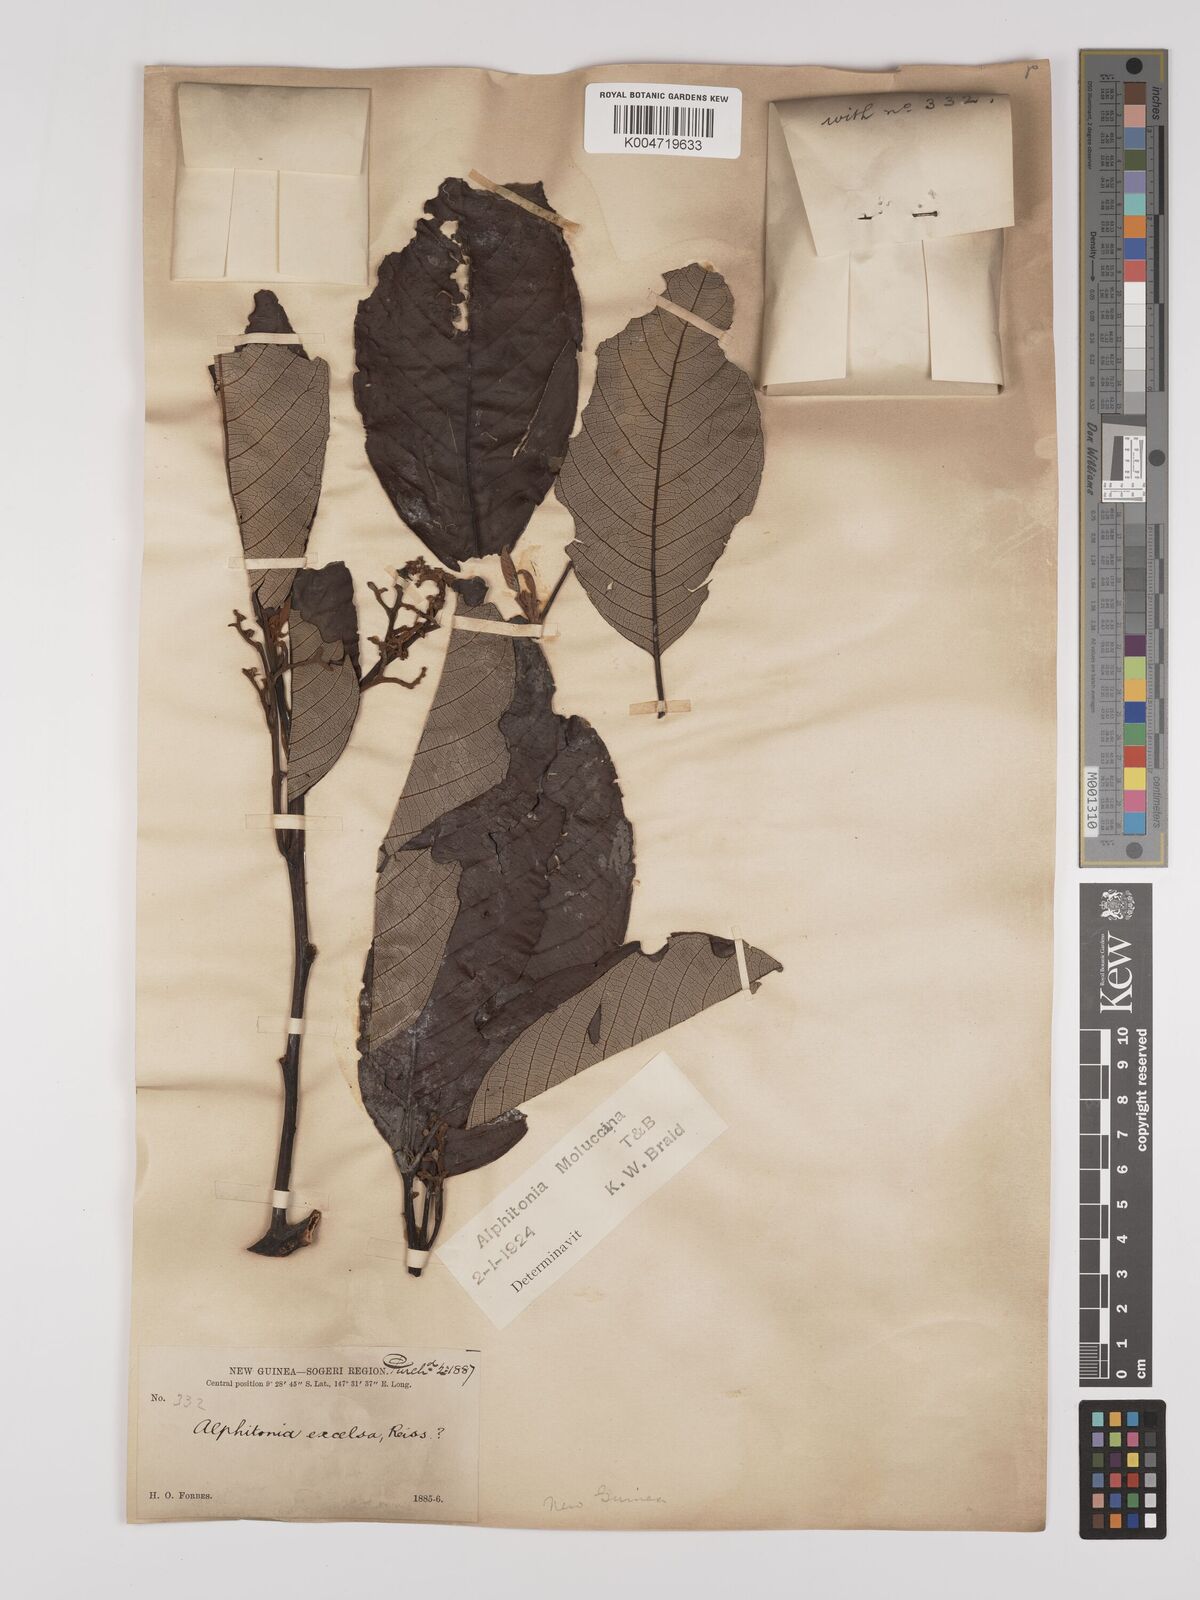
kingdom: Plantae
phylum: Tracheophyta
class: Magnoliopsida
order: Rosales
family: Rhamnaceae
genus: Alphitonia
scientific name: Alphitonia incana
